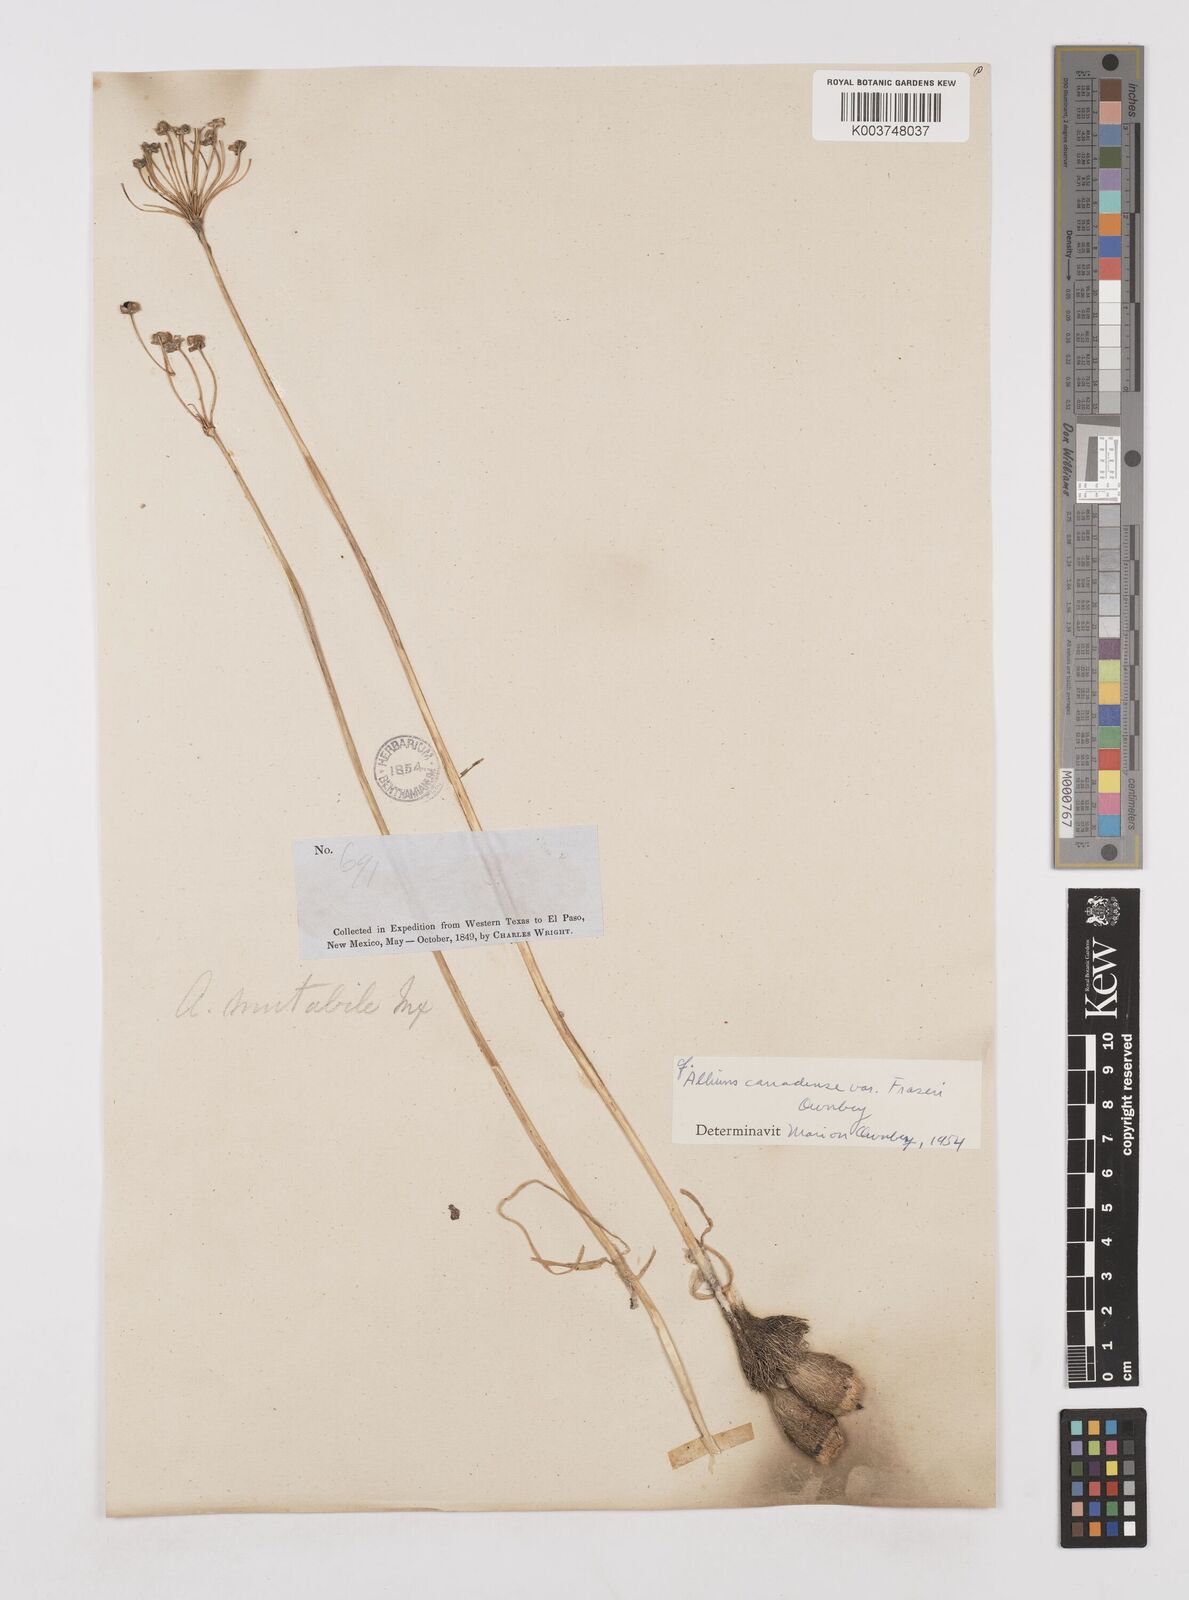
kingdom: Plantae
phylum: Tracheophyta
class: Liliopsida
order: Asparagales
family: Amaryllidaceae
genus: Allium
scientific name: Allium fraseri
